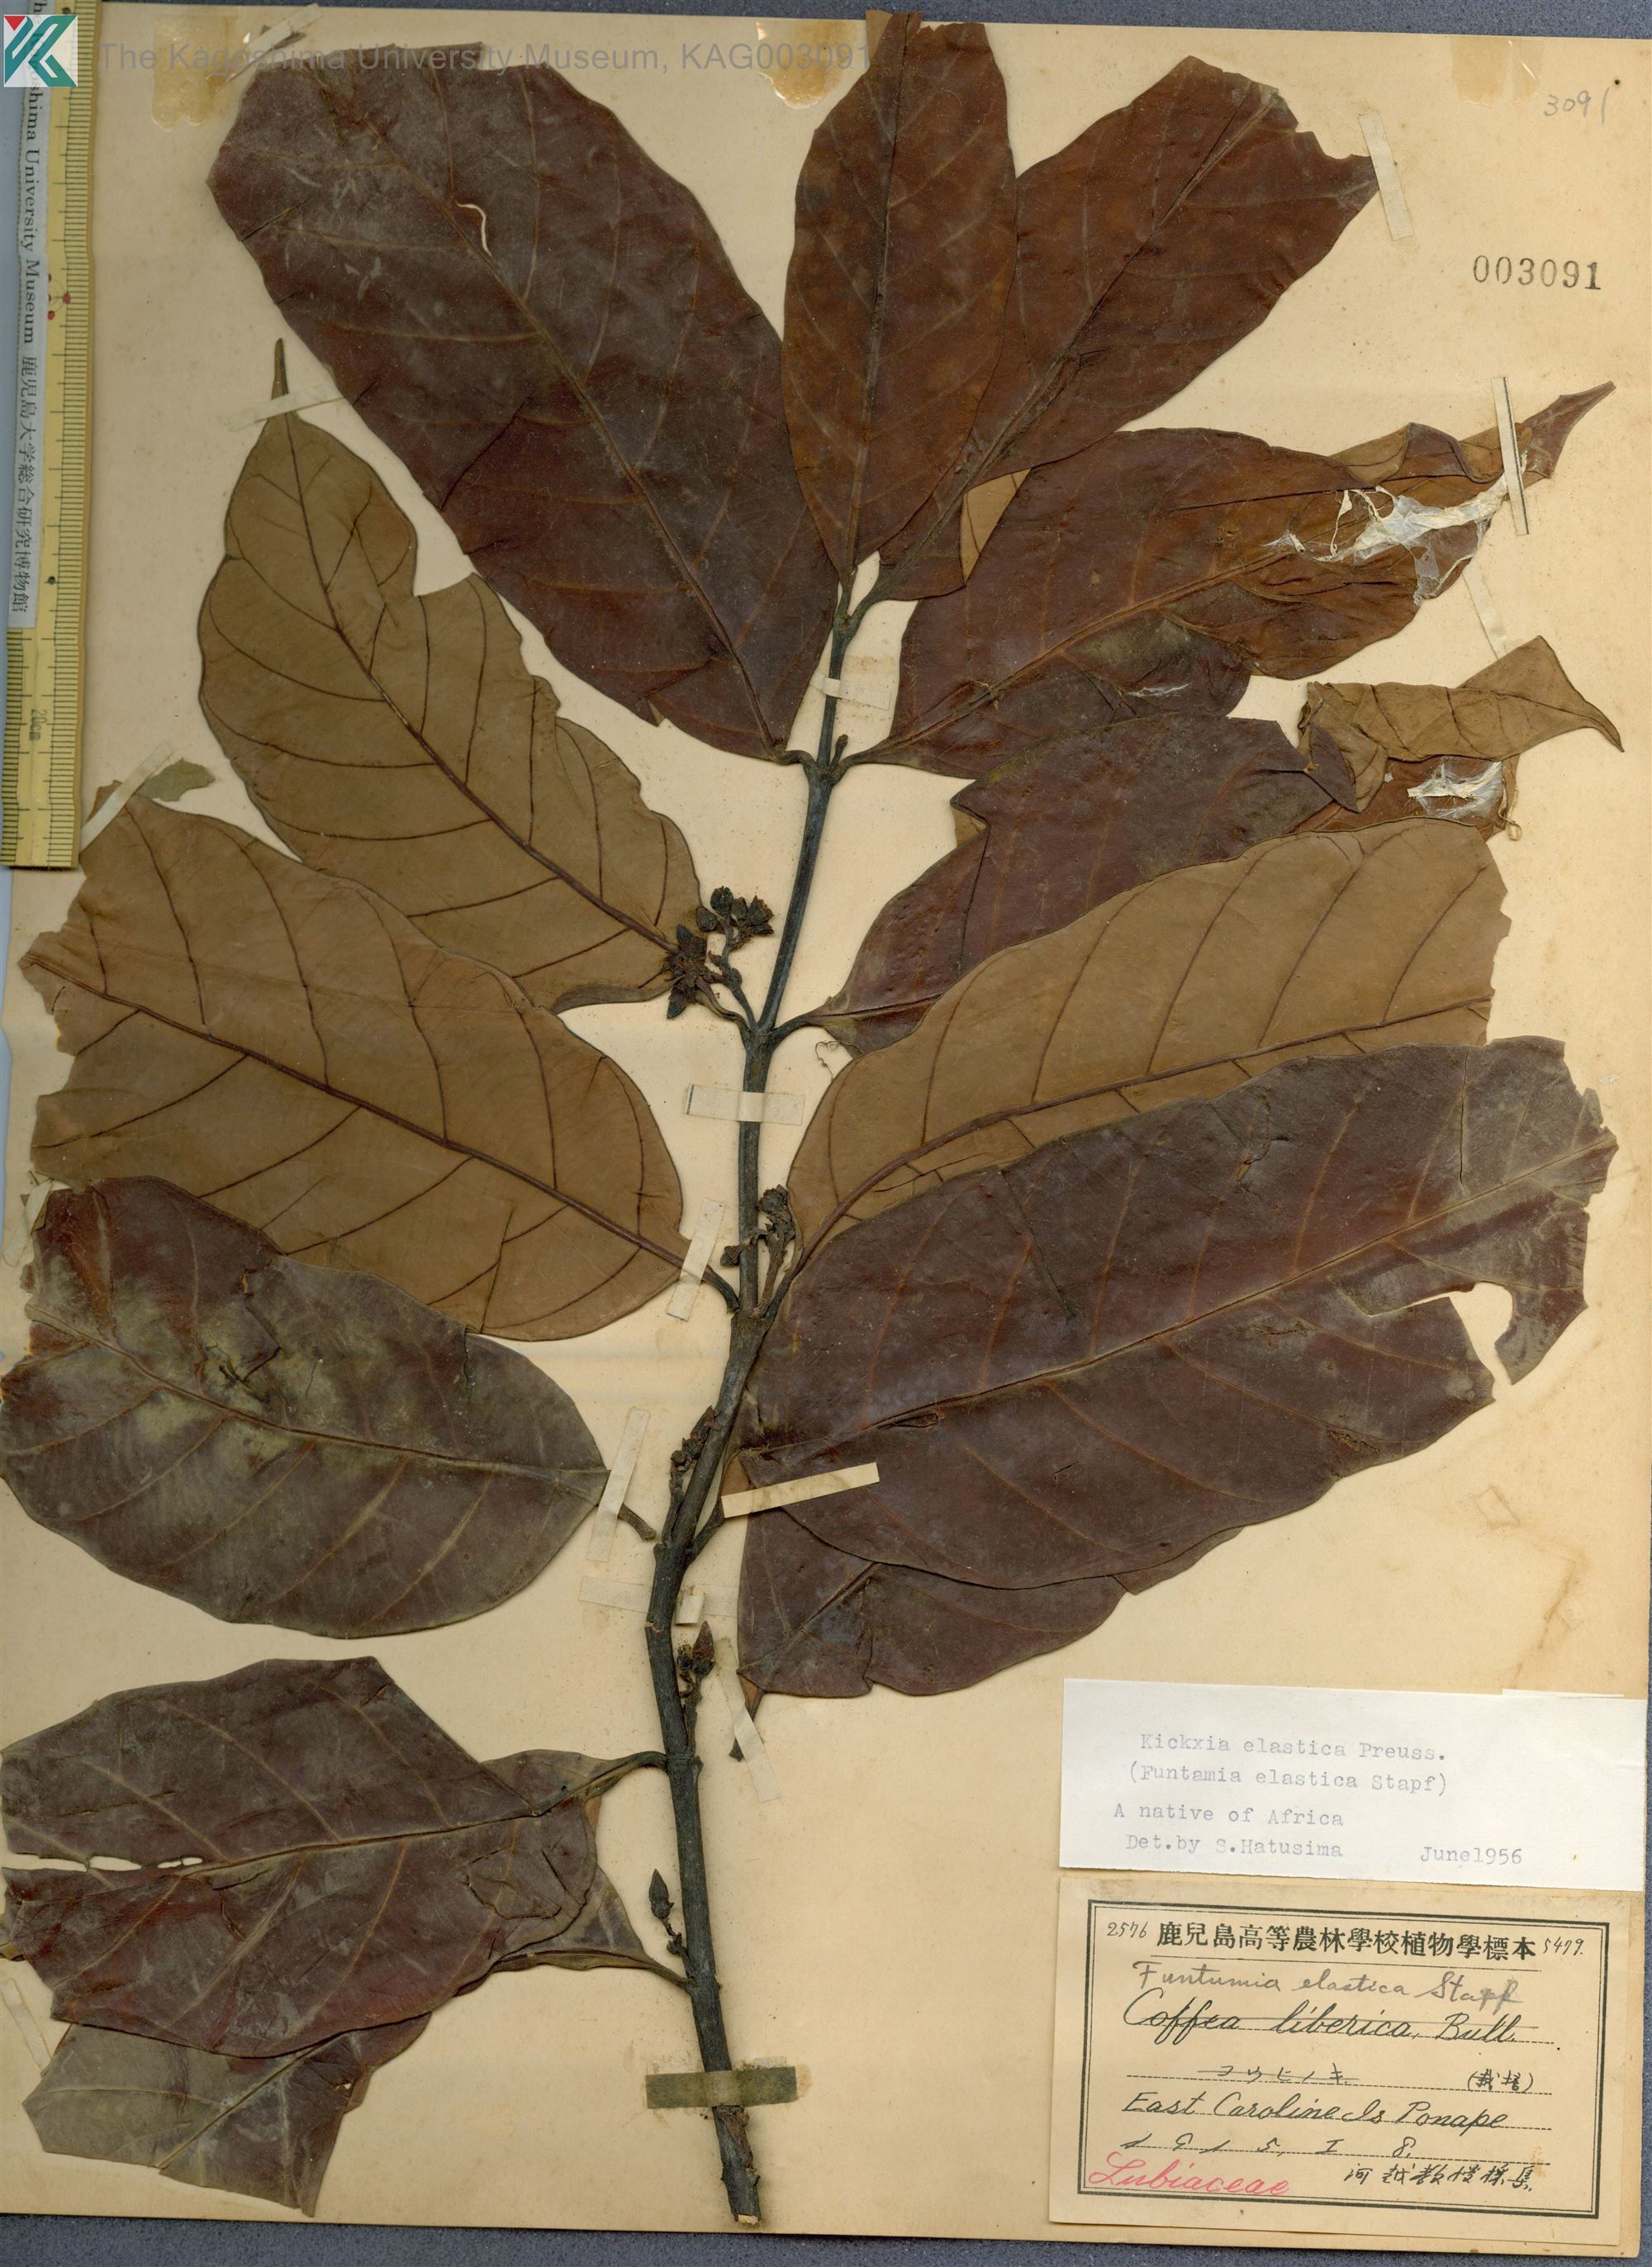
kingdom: Plantae
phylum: Tracheophyta
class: Magnoliopsida
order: Gentianales
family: Apocynaceae
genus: Funtumia
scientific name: Funtumia elastica
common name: Silkrubber
